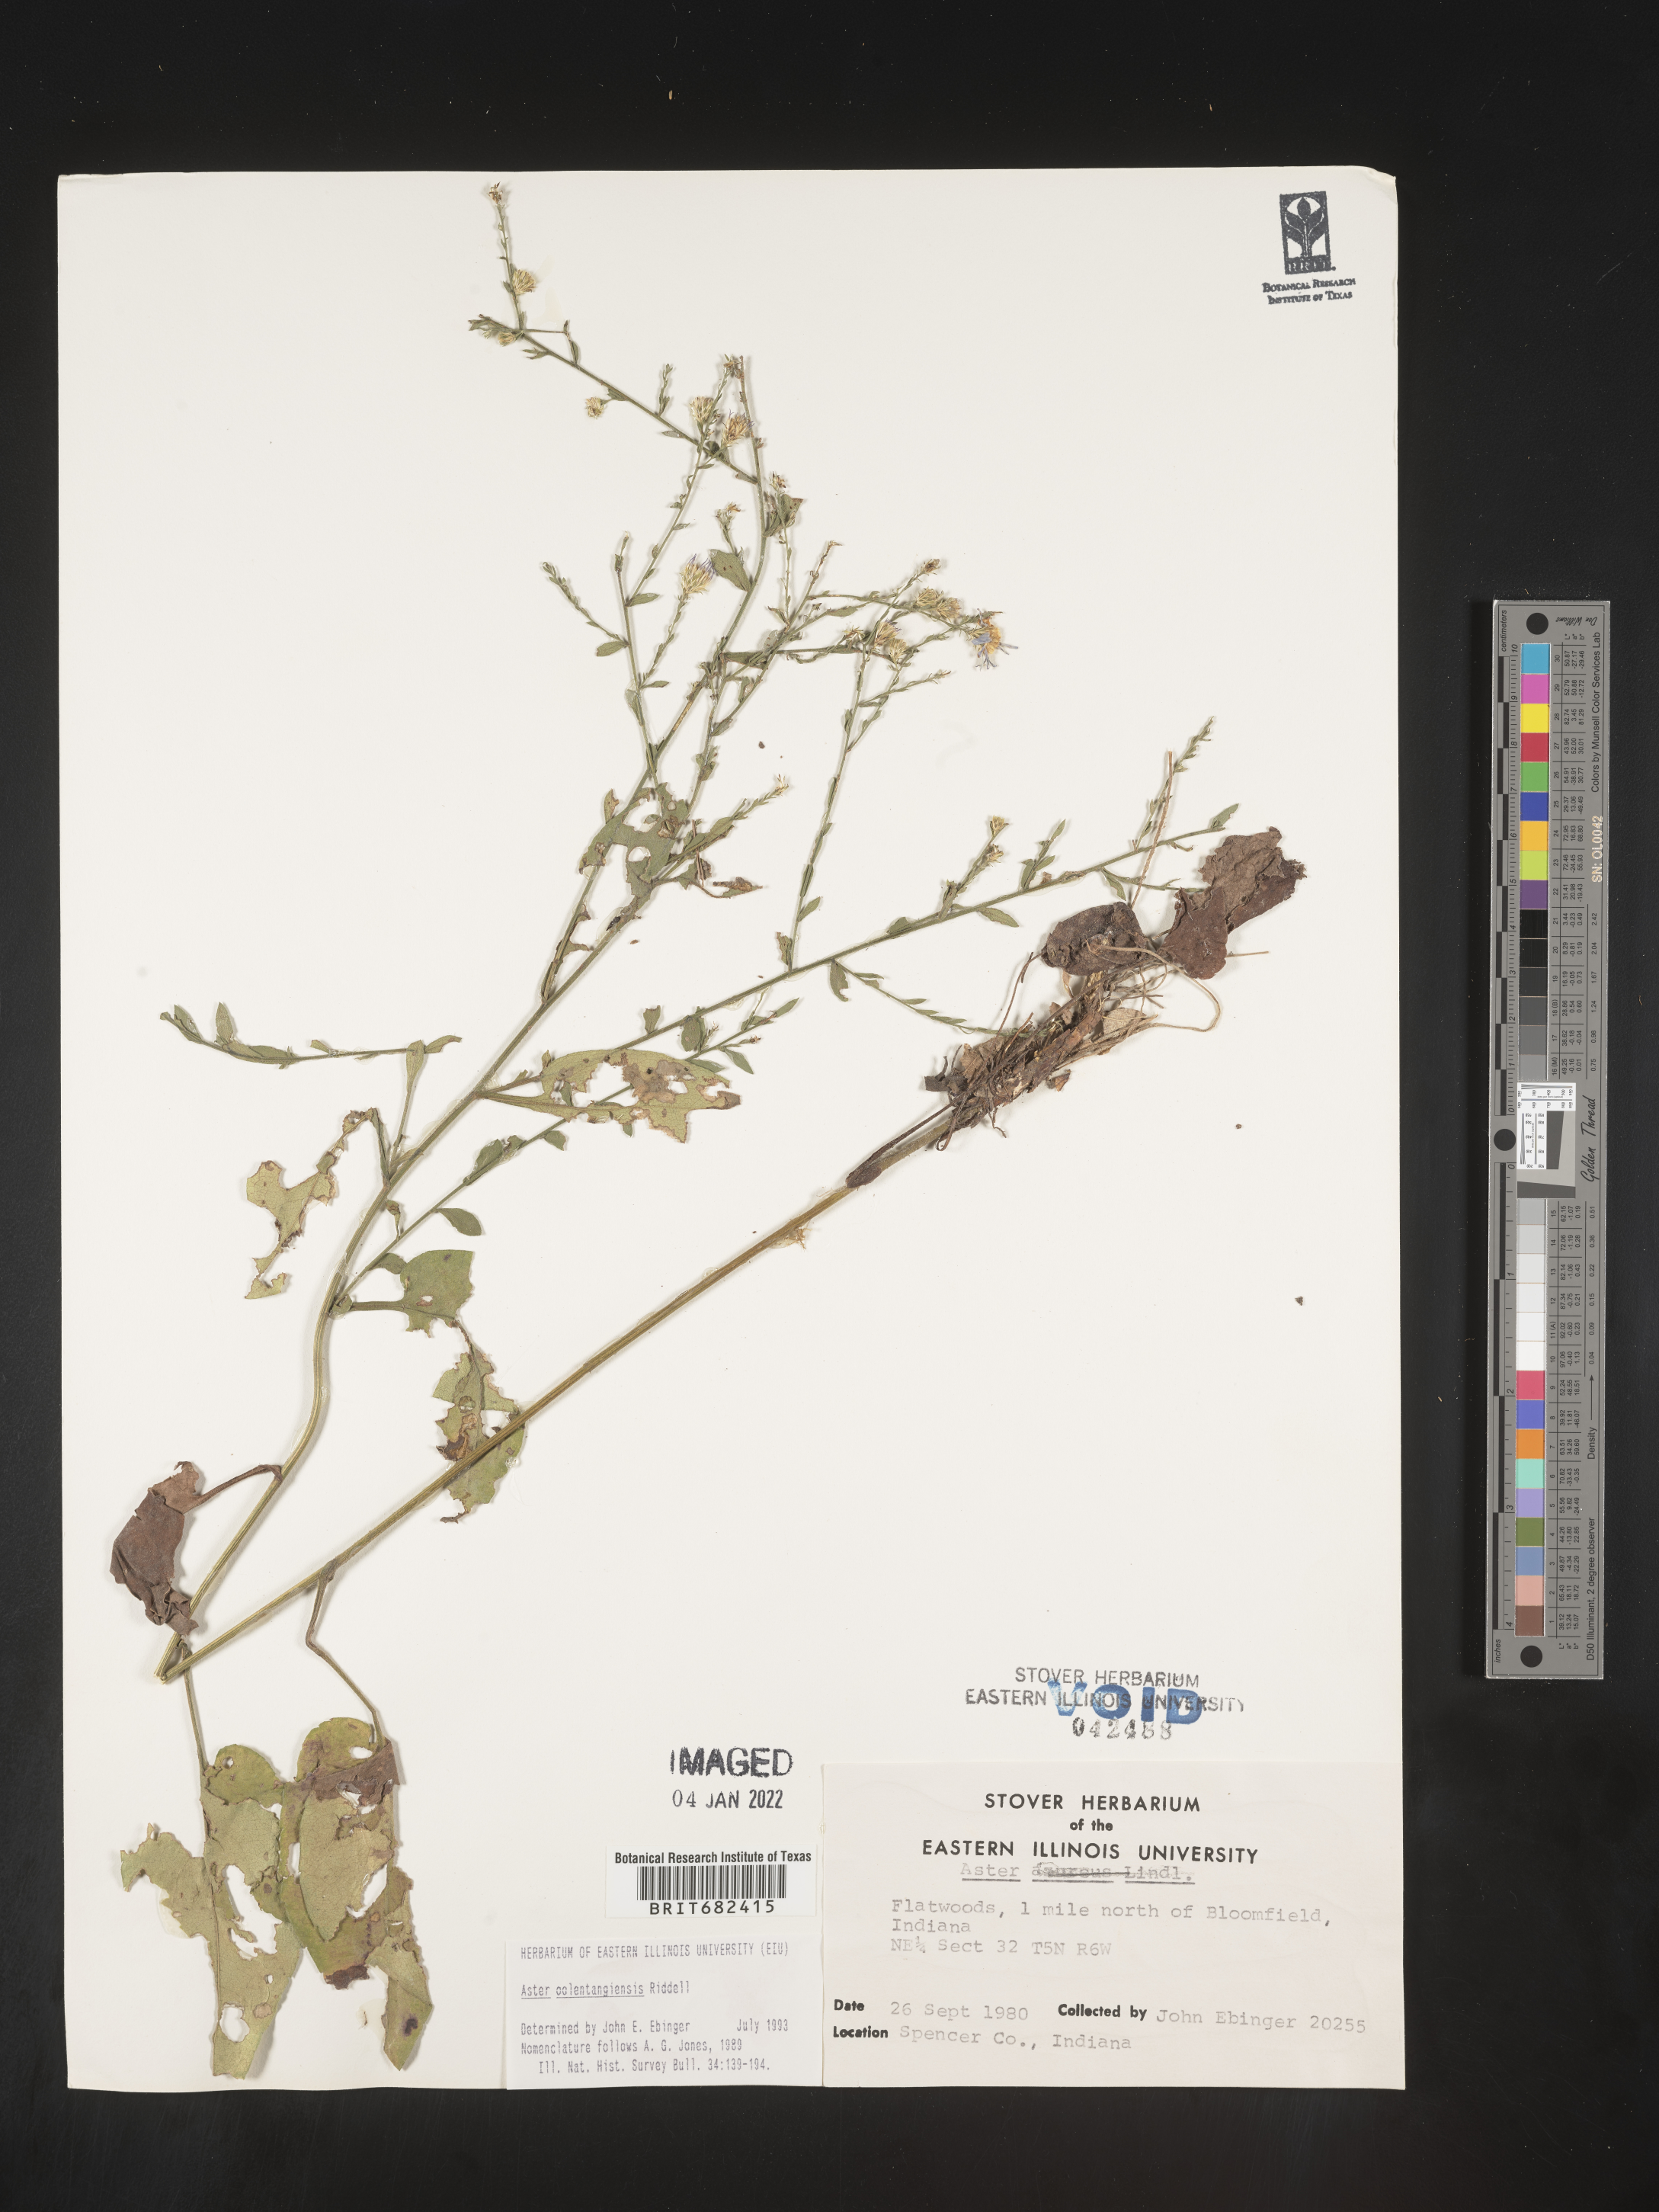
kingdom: Plantae
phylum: Tracheophyta
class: Magnoliopsida
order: Asterales
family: Asteraceae
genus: Aster
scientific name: Aster
